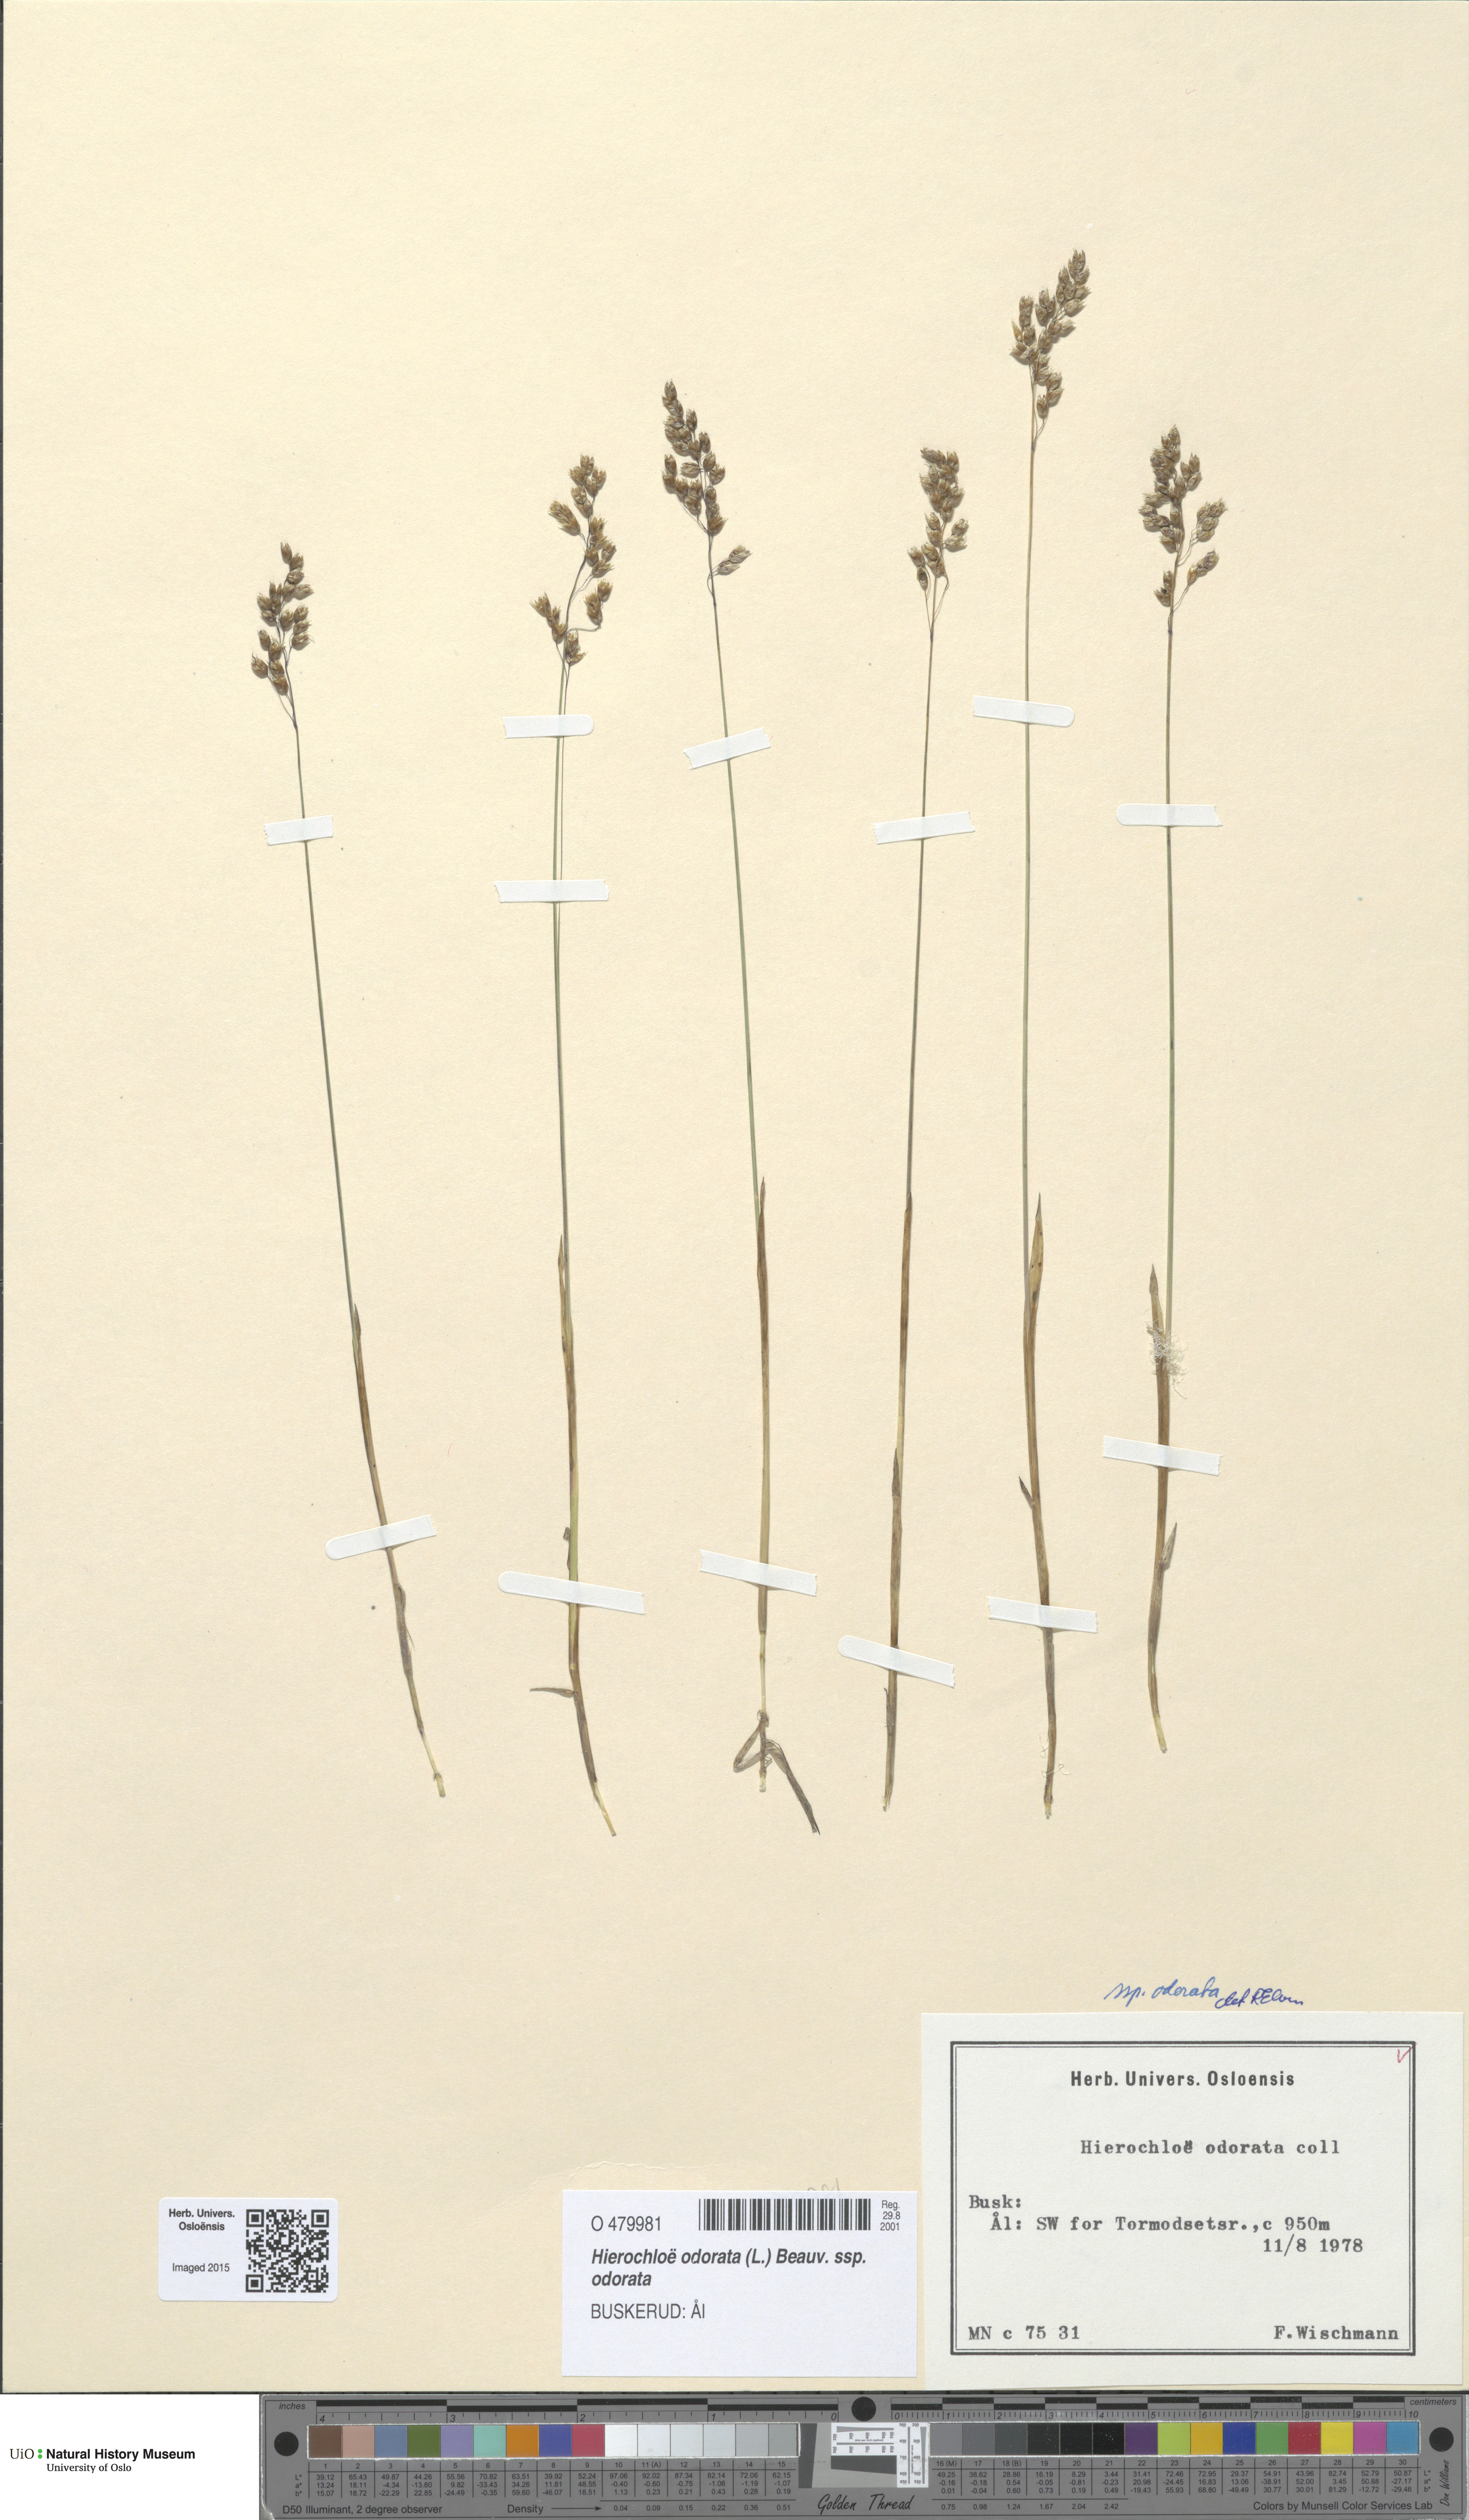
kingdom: Plantae
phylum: Tracheophyta
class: Liliopsida
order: Poales
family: Poaceae
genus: Anthoxanthum
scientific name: Anthoxanthum nitens
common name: Holy grass
